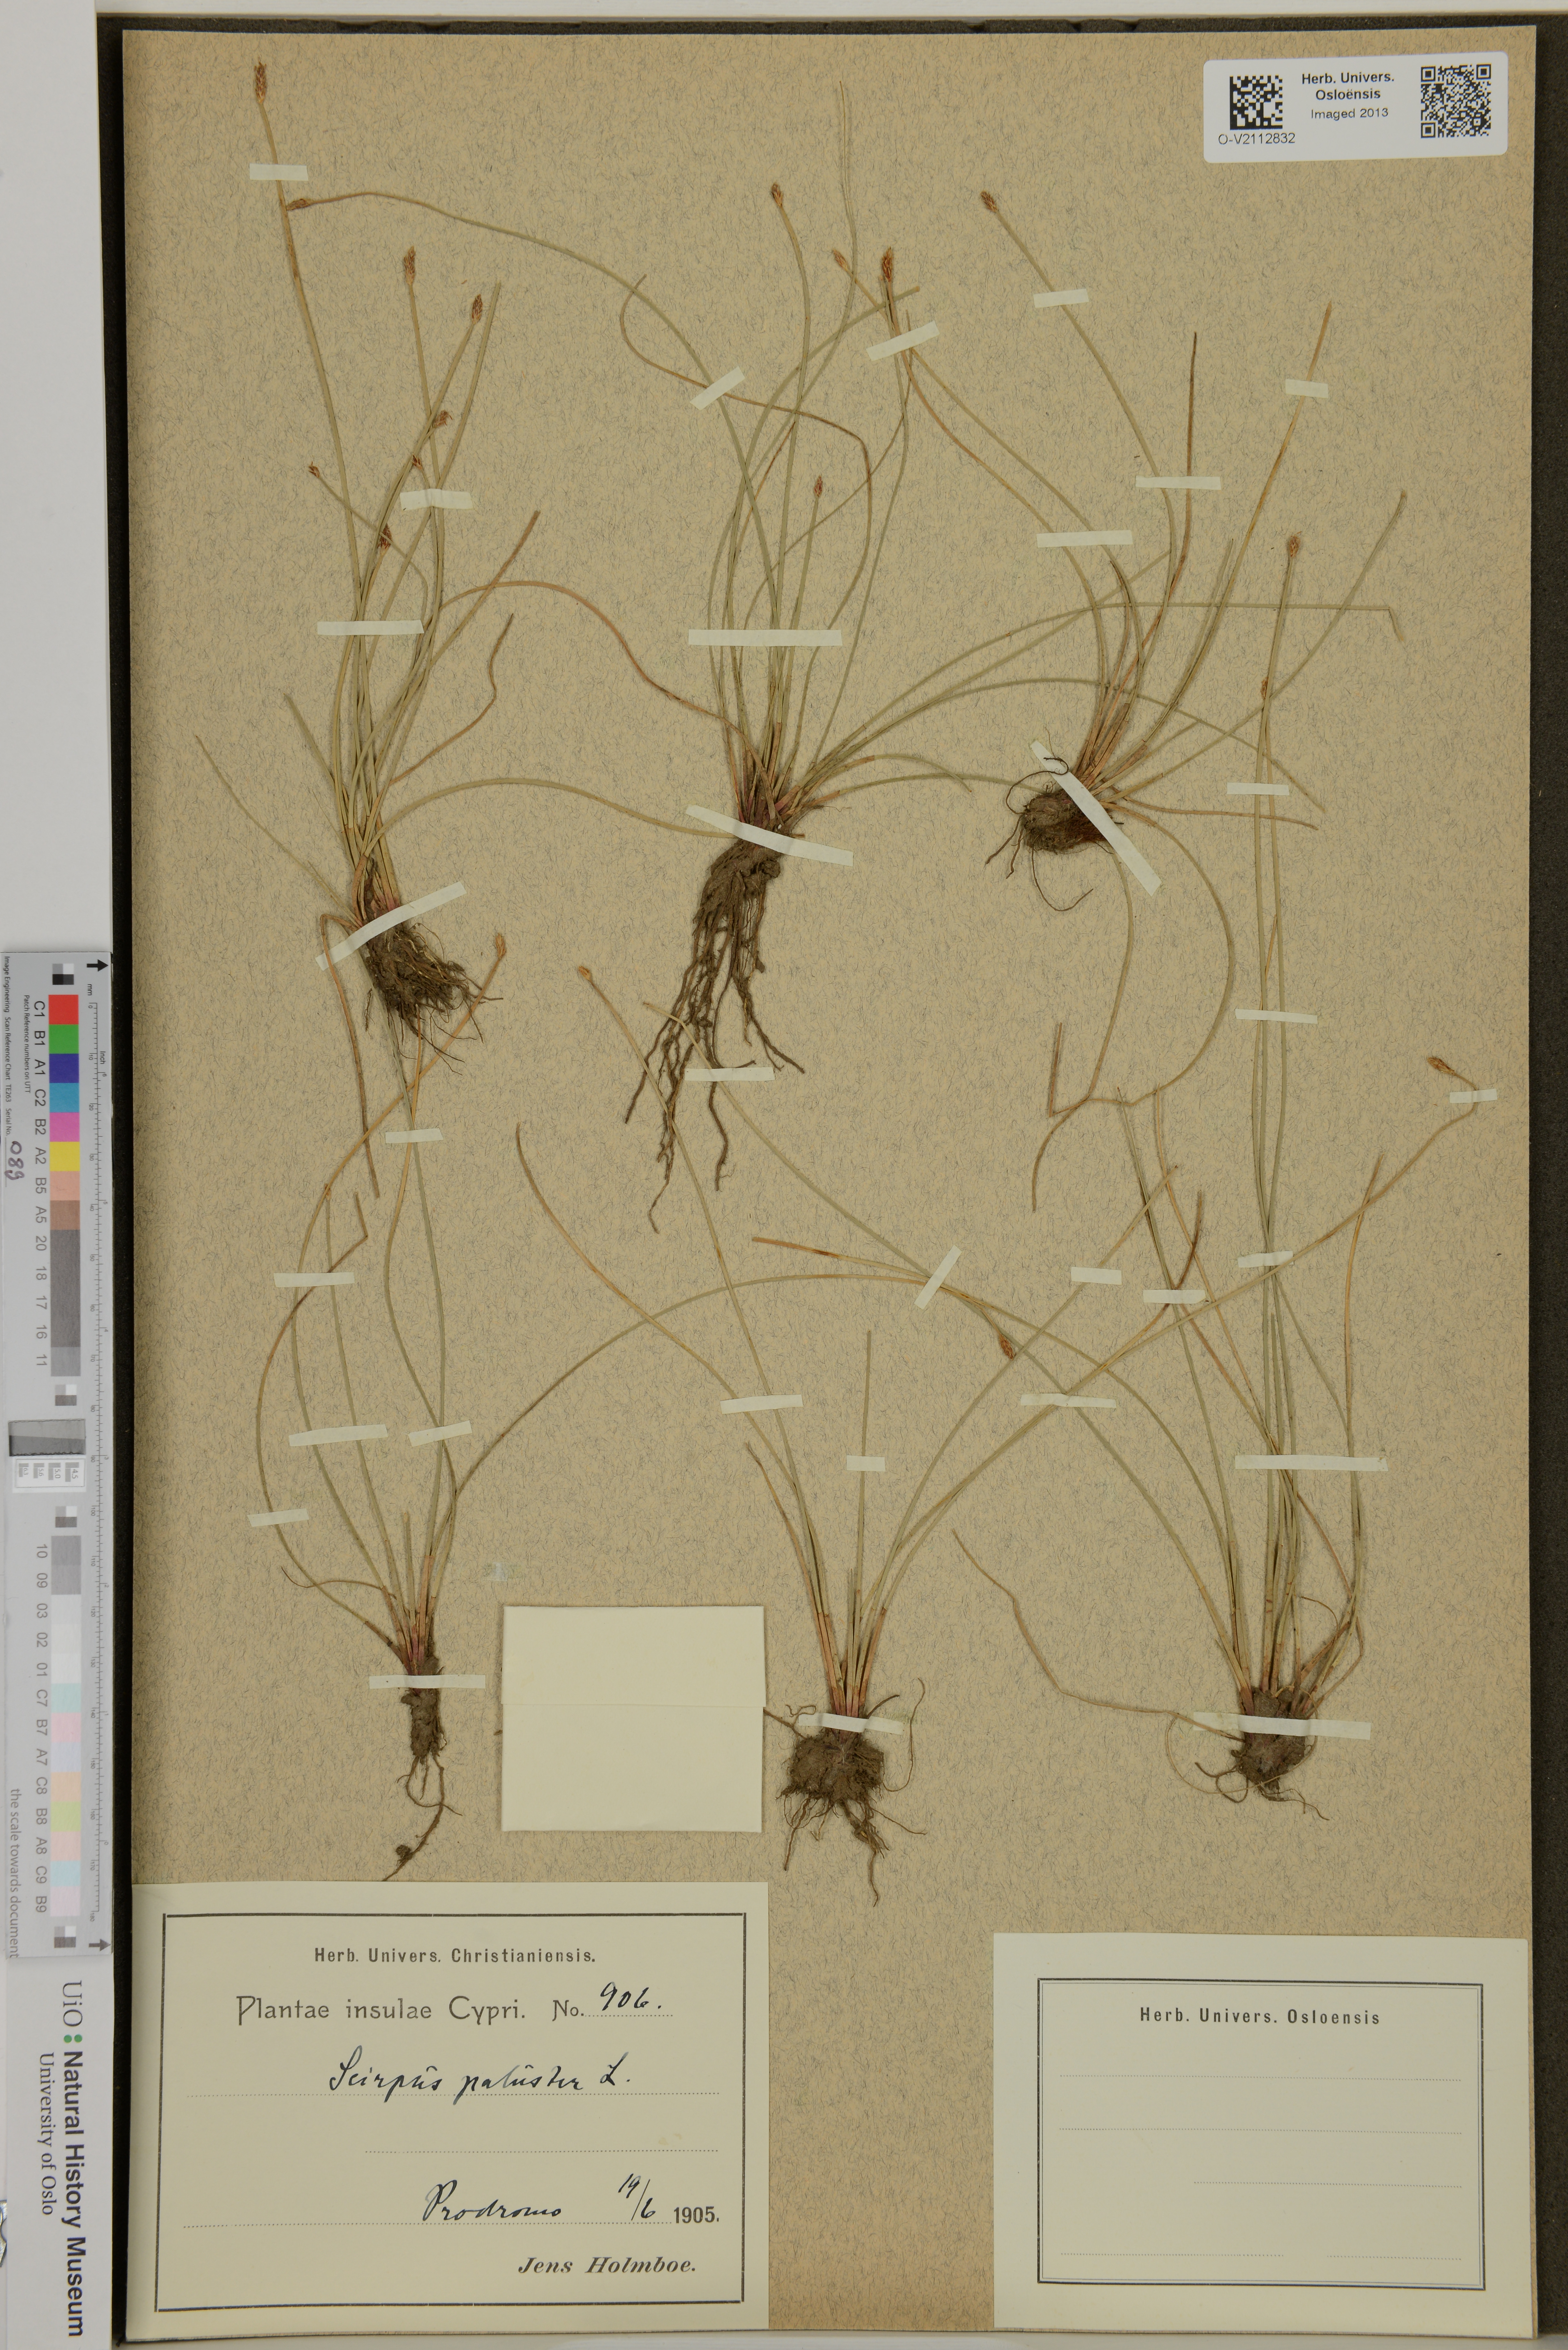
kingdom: Plantae
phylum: Tracheophyta
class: Liliopsida
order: Poales
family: Cyperaceae
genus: Eleocharis
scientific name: Eleocharis palustris
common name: Common spike-rush
